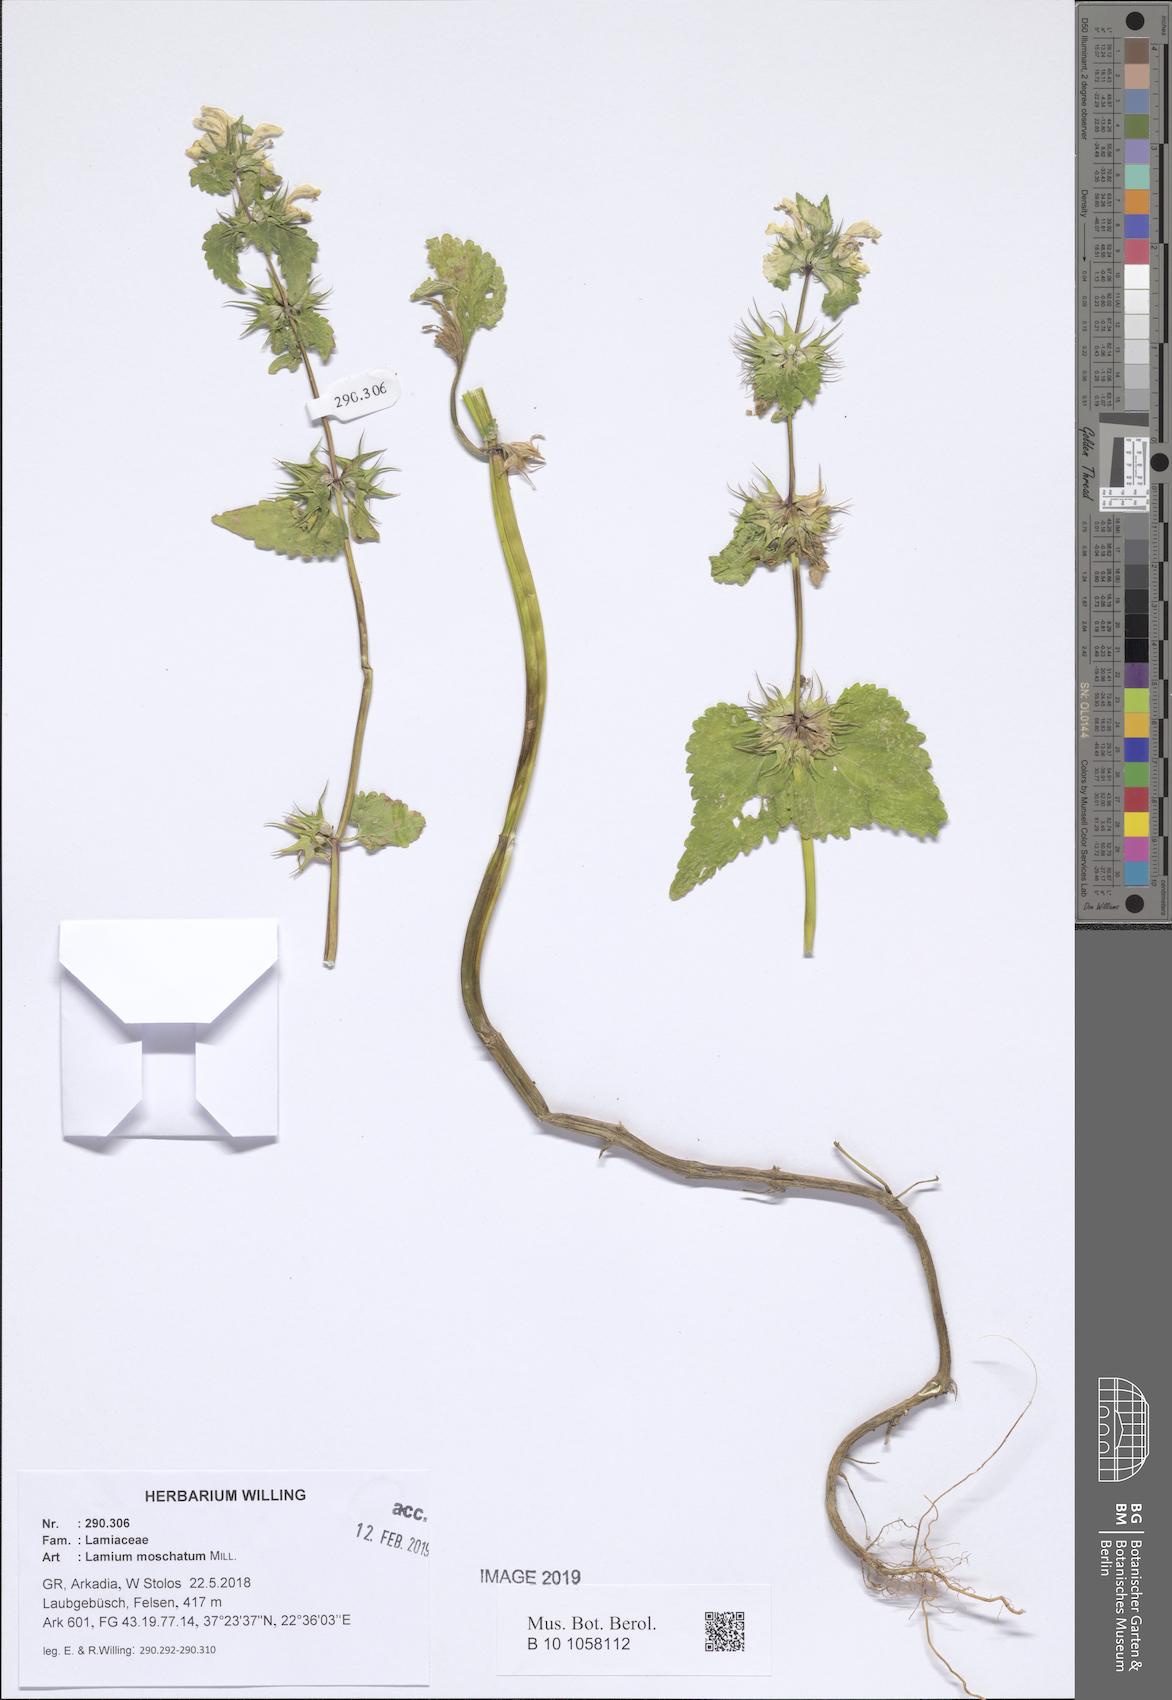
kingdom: Plantae
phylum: Tracheophyta
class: Magnoliopsida
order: Lamiales
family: Lamiaceae
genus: Lamium
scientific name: Lamium moschatum
